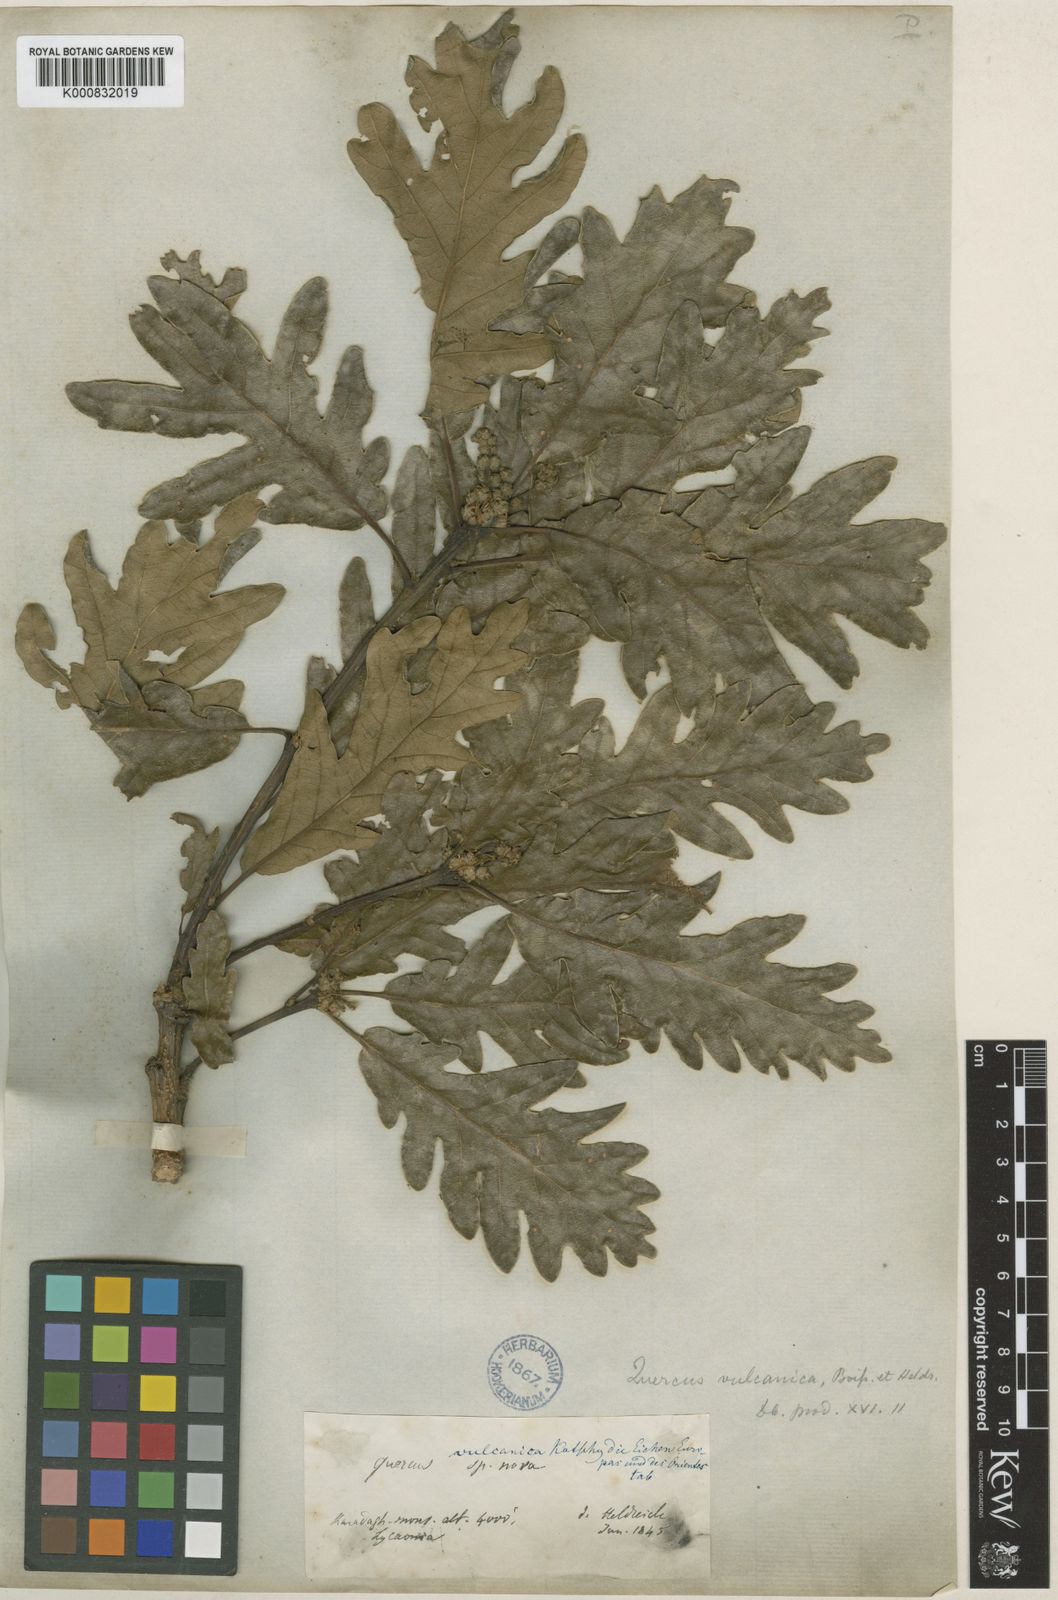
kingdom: Plantae
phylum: Tracheophyta
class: Magnoliopsida
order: Fagales
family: Fagaceae
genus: Quercus
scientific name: Quercus petraea
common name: Sessile oak
